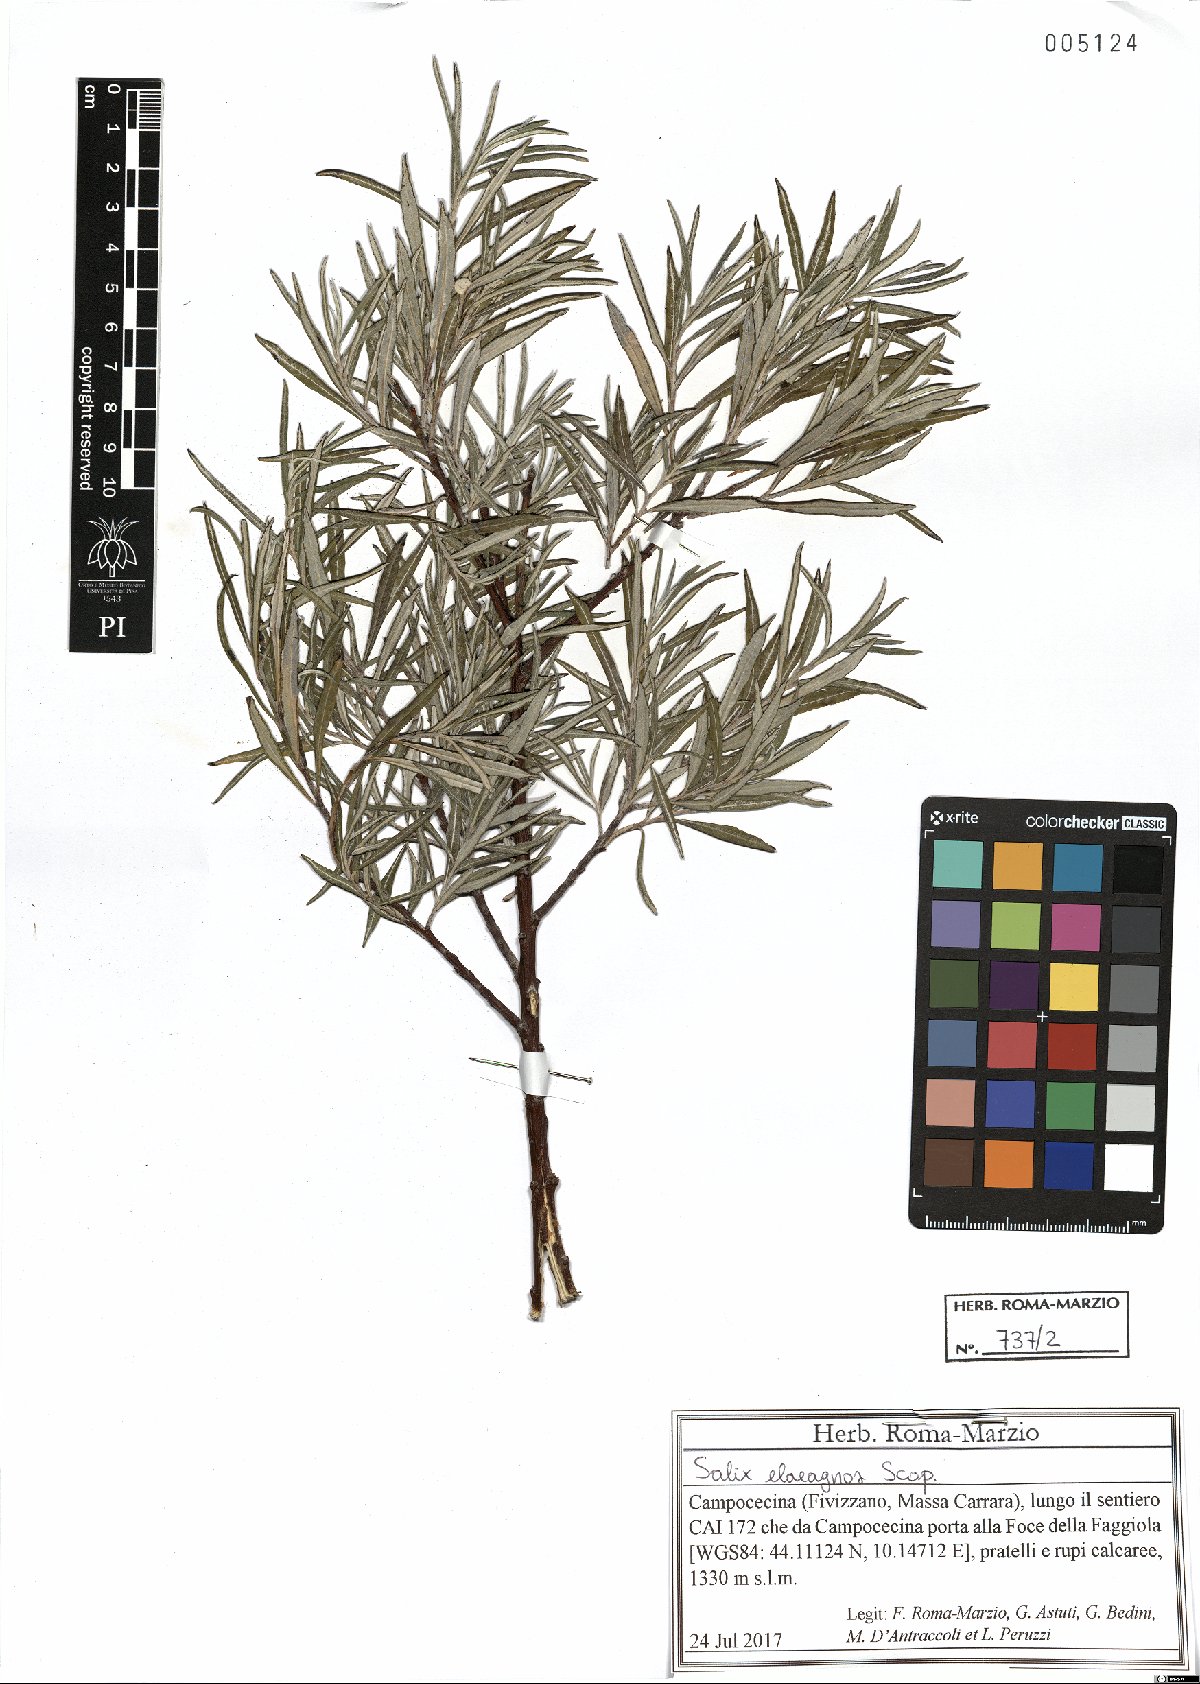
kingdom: Plantae
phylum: Tracheophyta
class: Magnoliopsida
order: Malpighiales
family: Salicaceae
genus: Salix
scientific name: Salix eleagnos
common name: Elaeagnus willow
